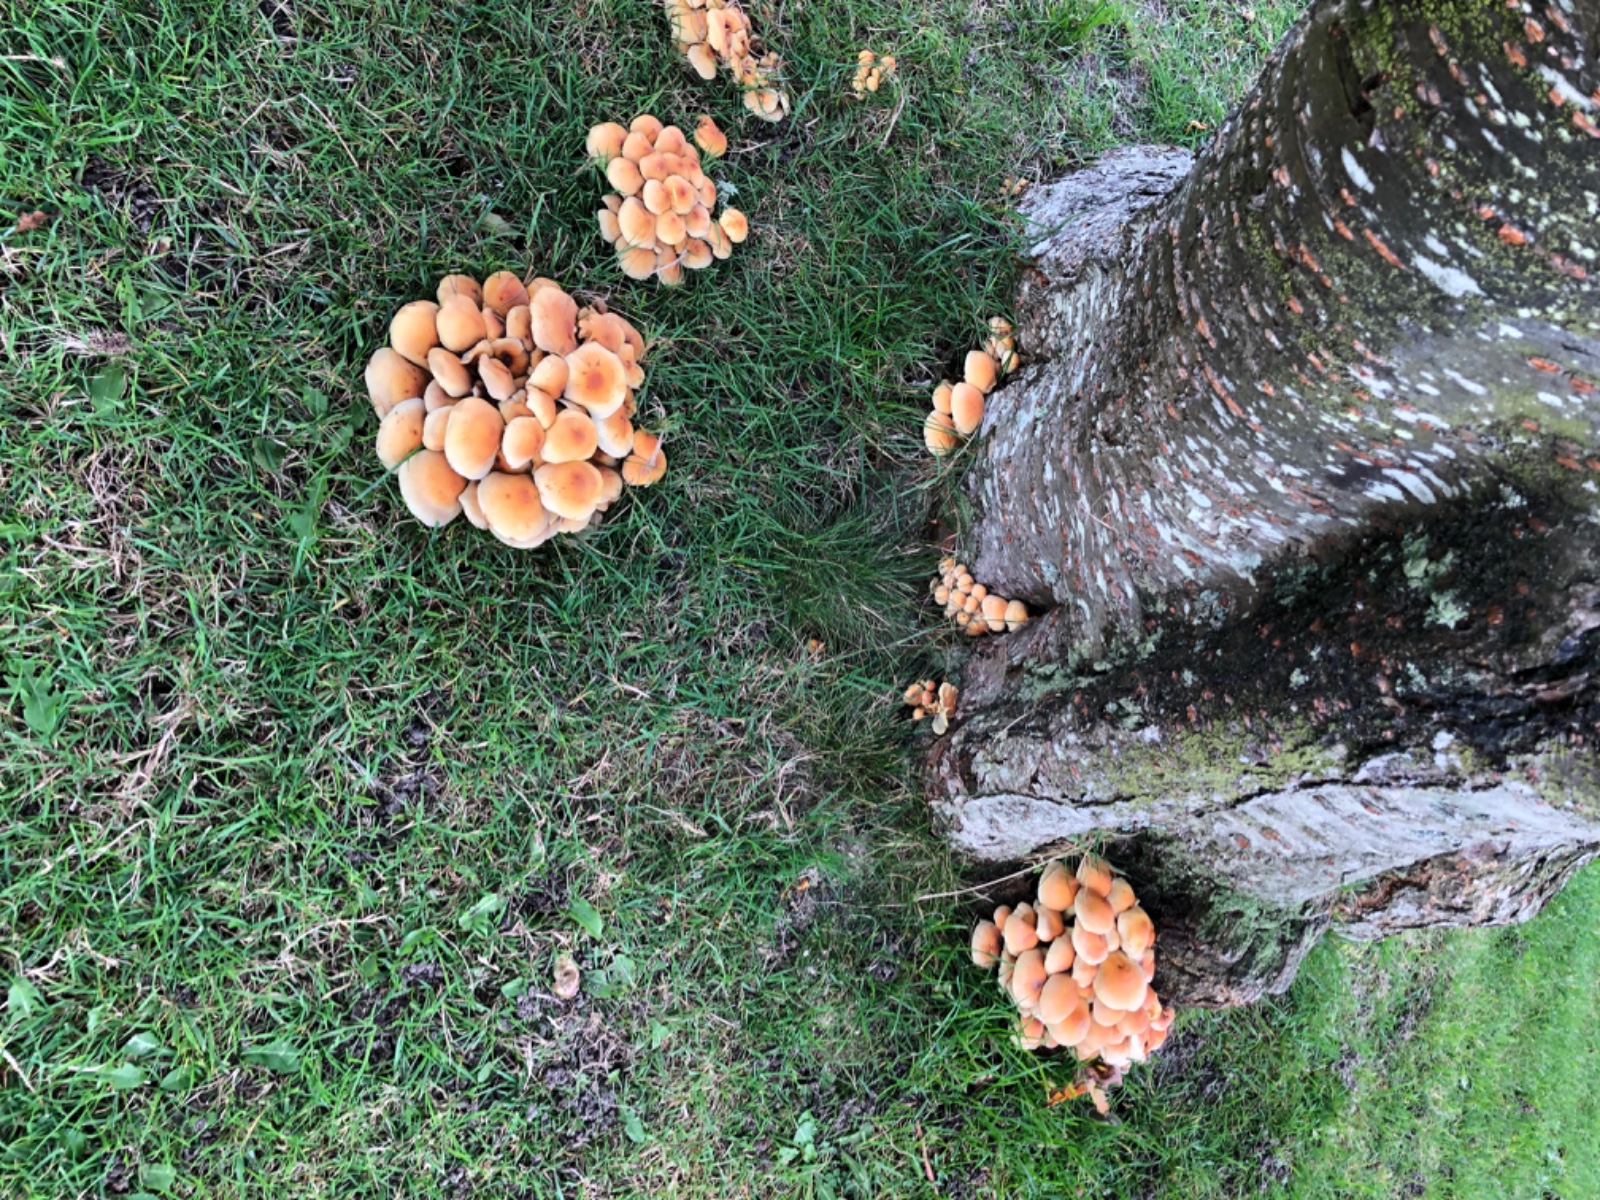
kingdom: Fungi
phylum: Basidiomycota
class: Agaricomycetes
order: Agaricales
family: Strophariaceae
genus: Hypholoma
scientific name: Hypholoma fasciculare
